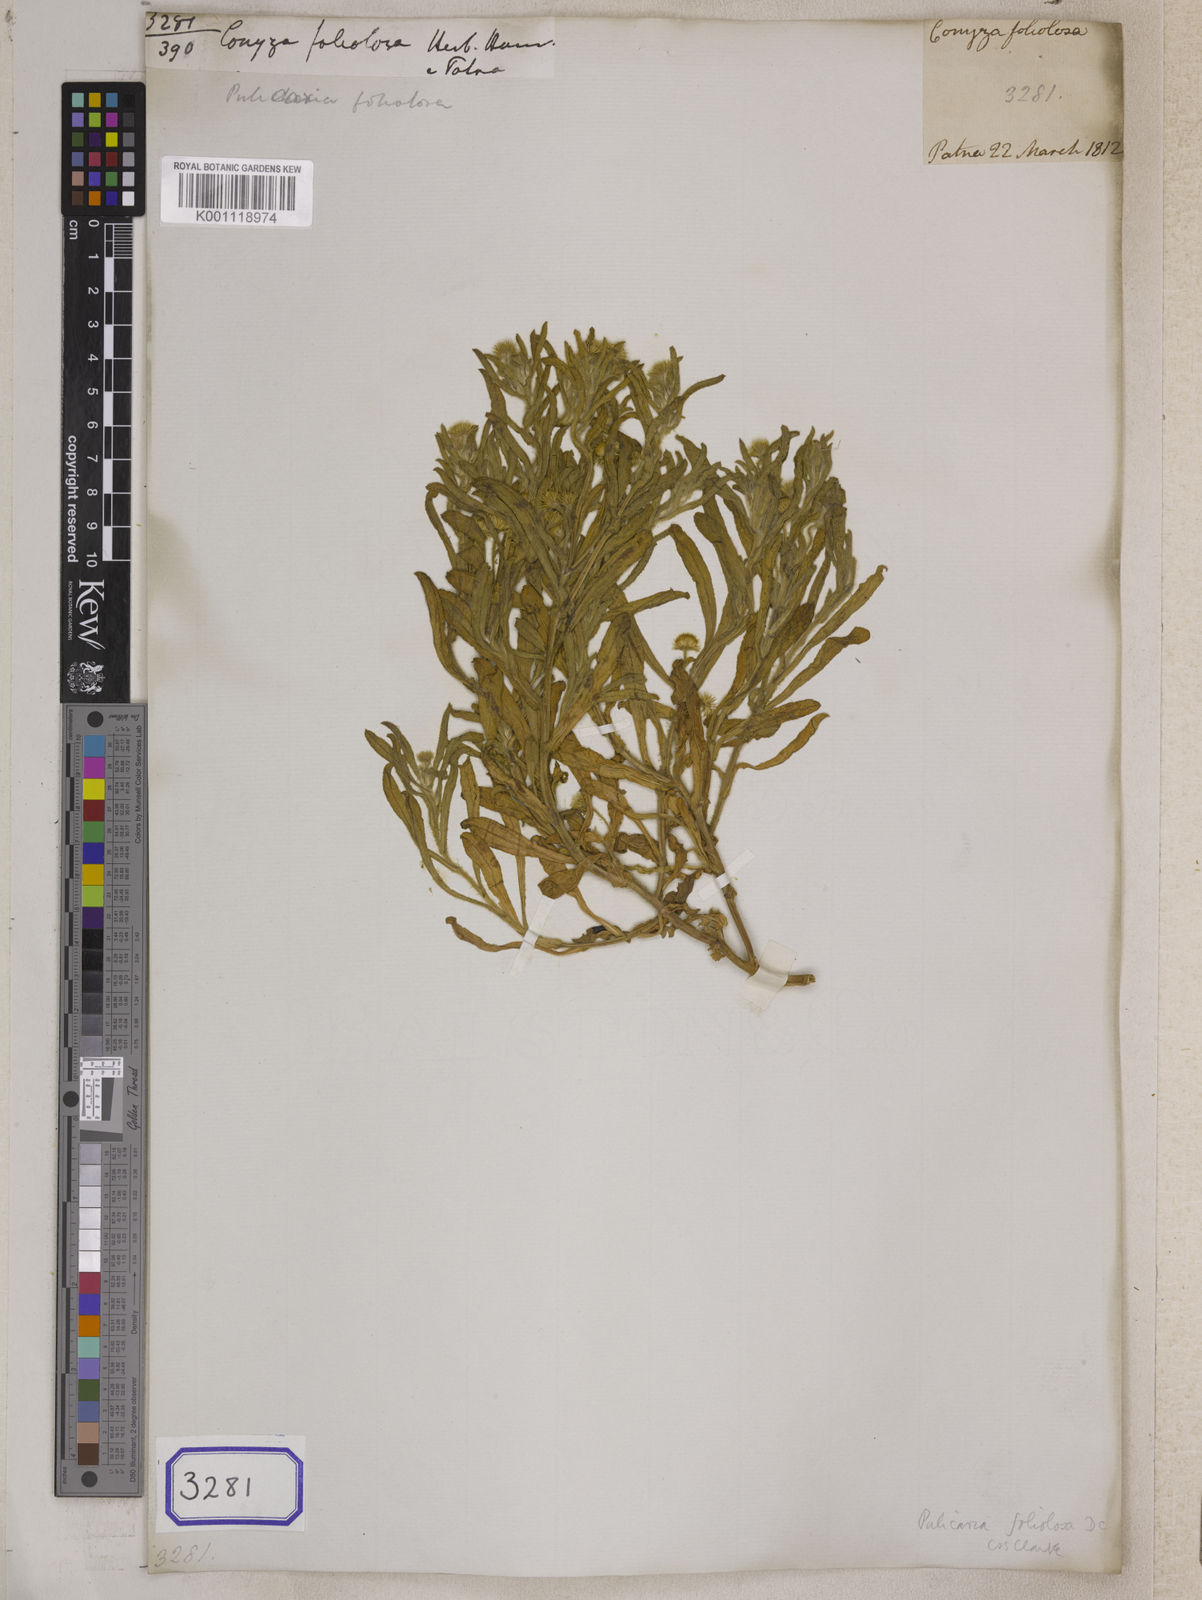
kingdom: Plantae
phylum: Tracheophyta
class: Magnoliopsida
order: Asterales
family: Asteraceae
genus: Pulicaria
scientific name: Pulicaria foliolosa
